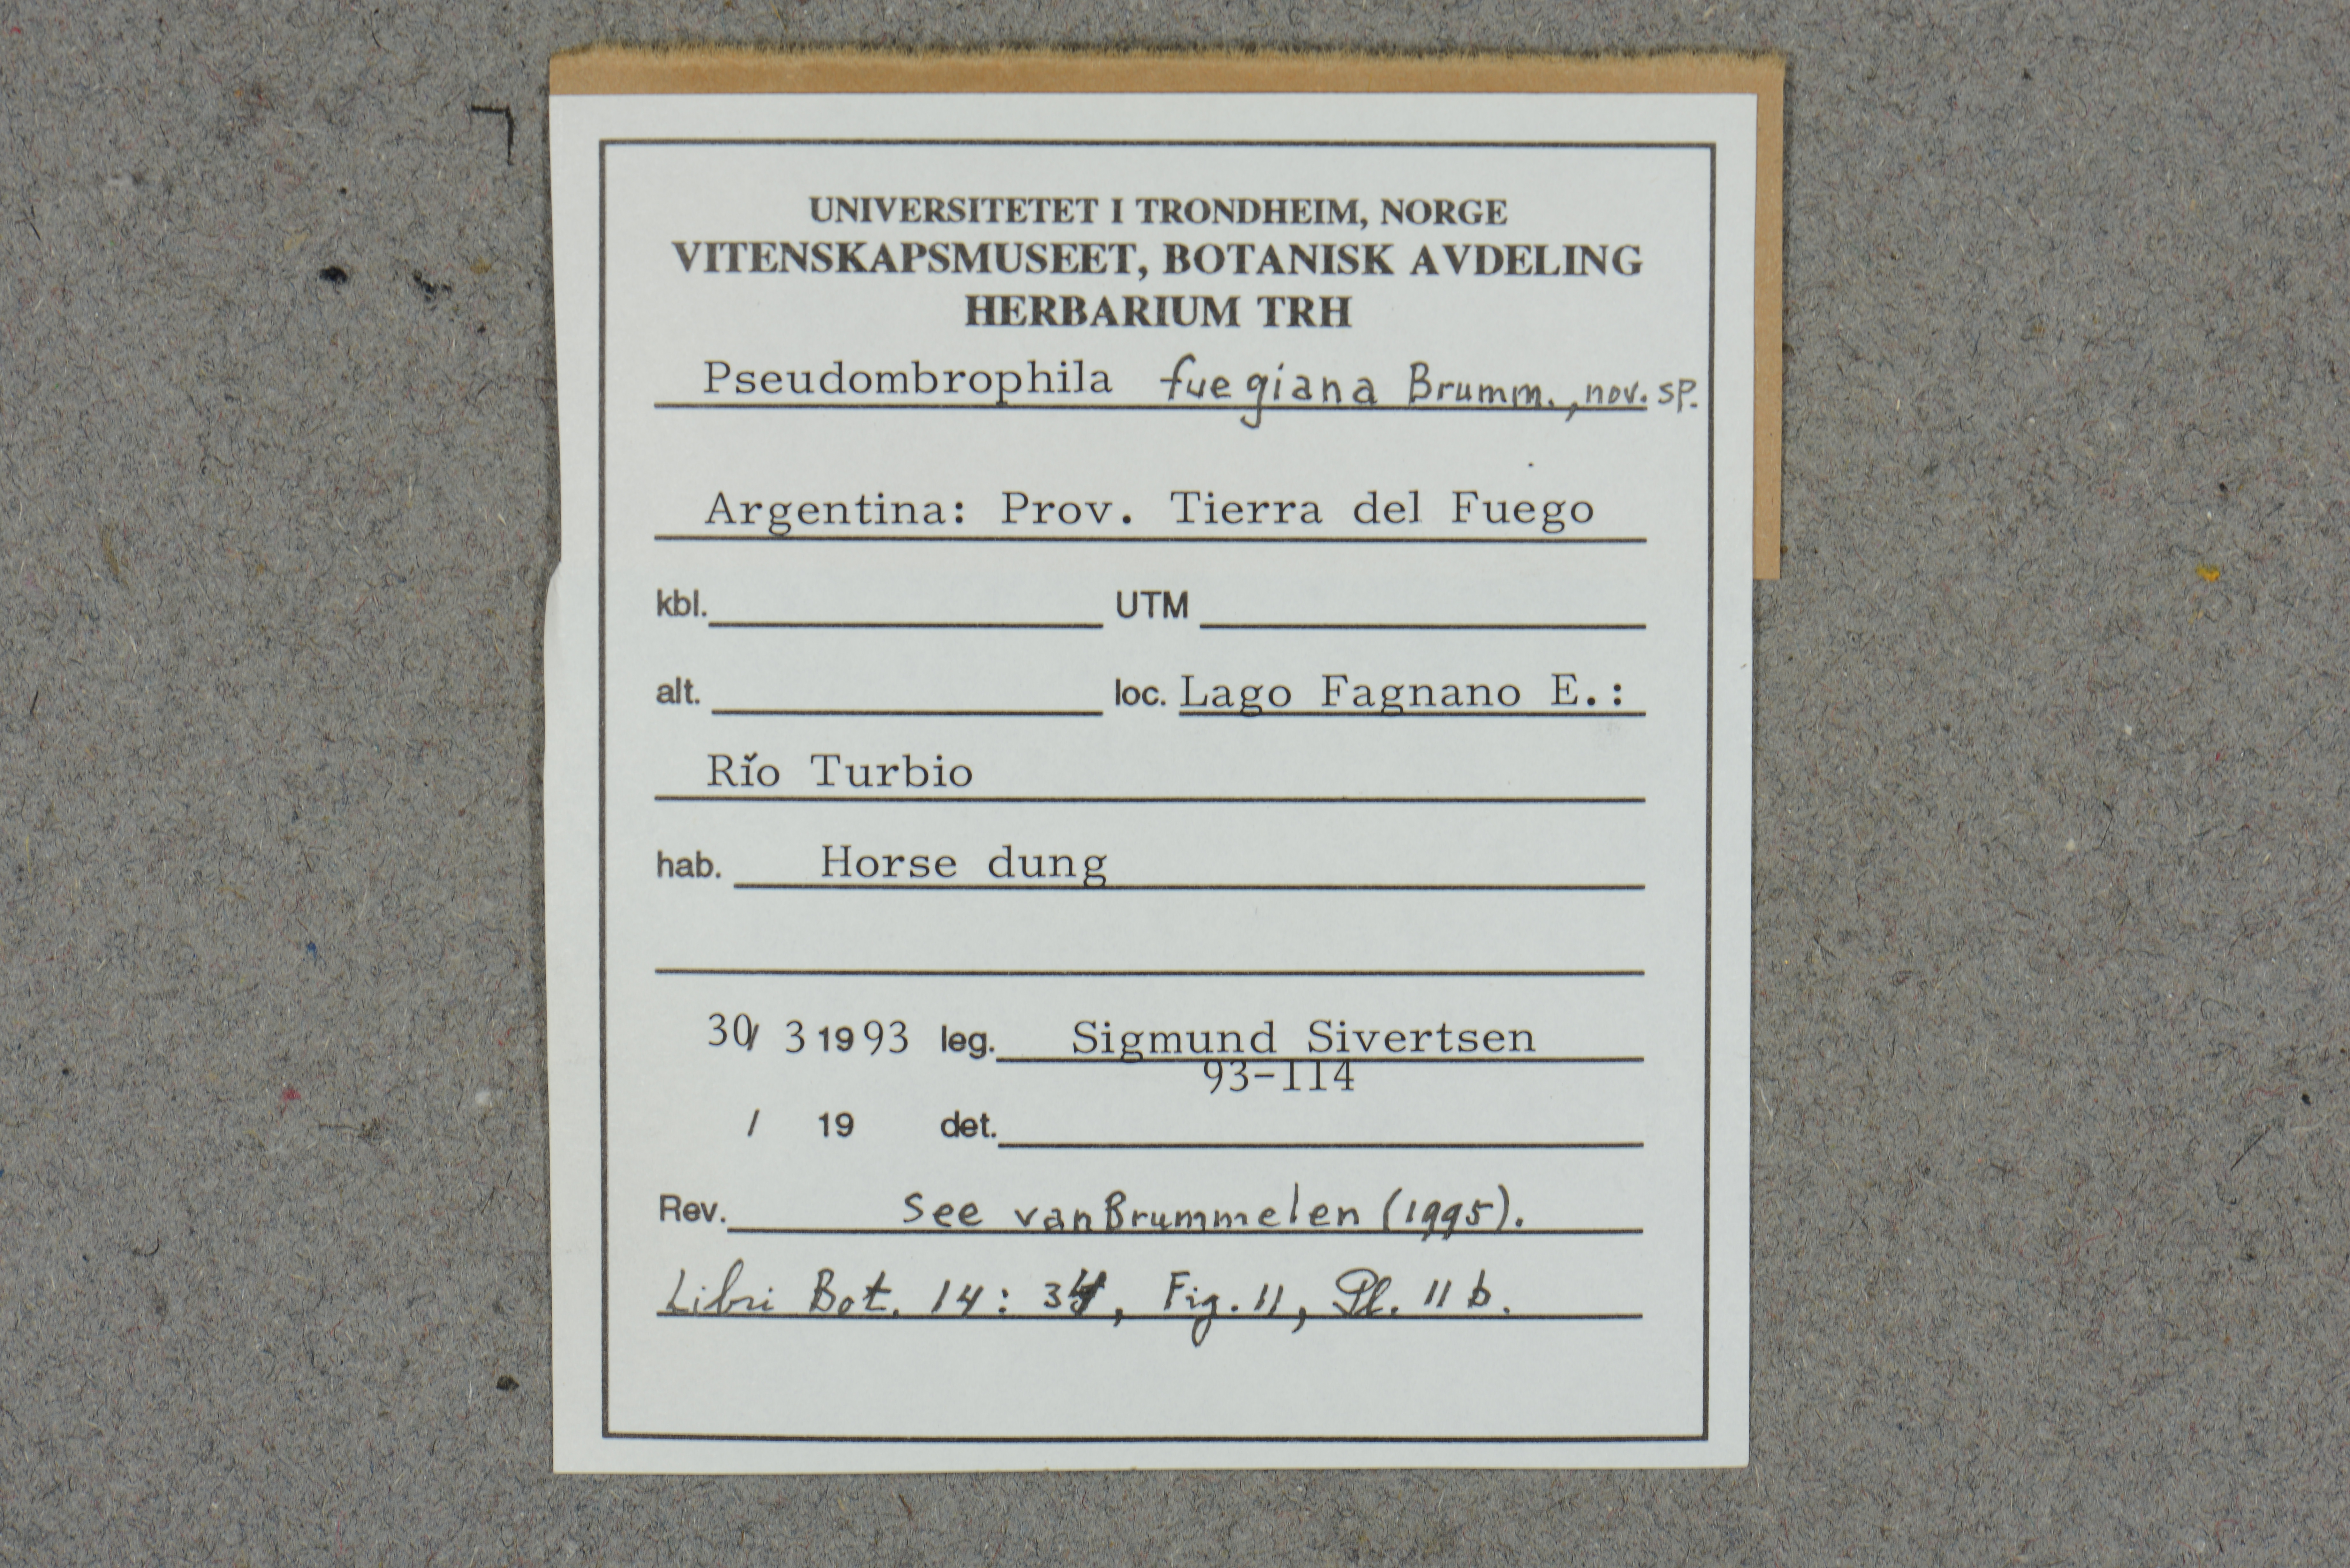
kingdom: Fungi
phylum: Ascomycota
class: Pezizomycetes
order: Pezizales
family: Pseudombrophilaceae
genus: Pseudombrophila
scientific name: Pseudombrophila fuegiana
